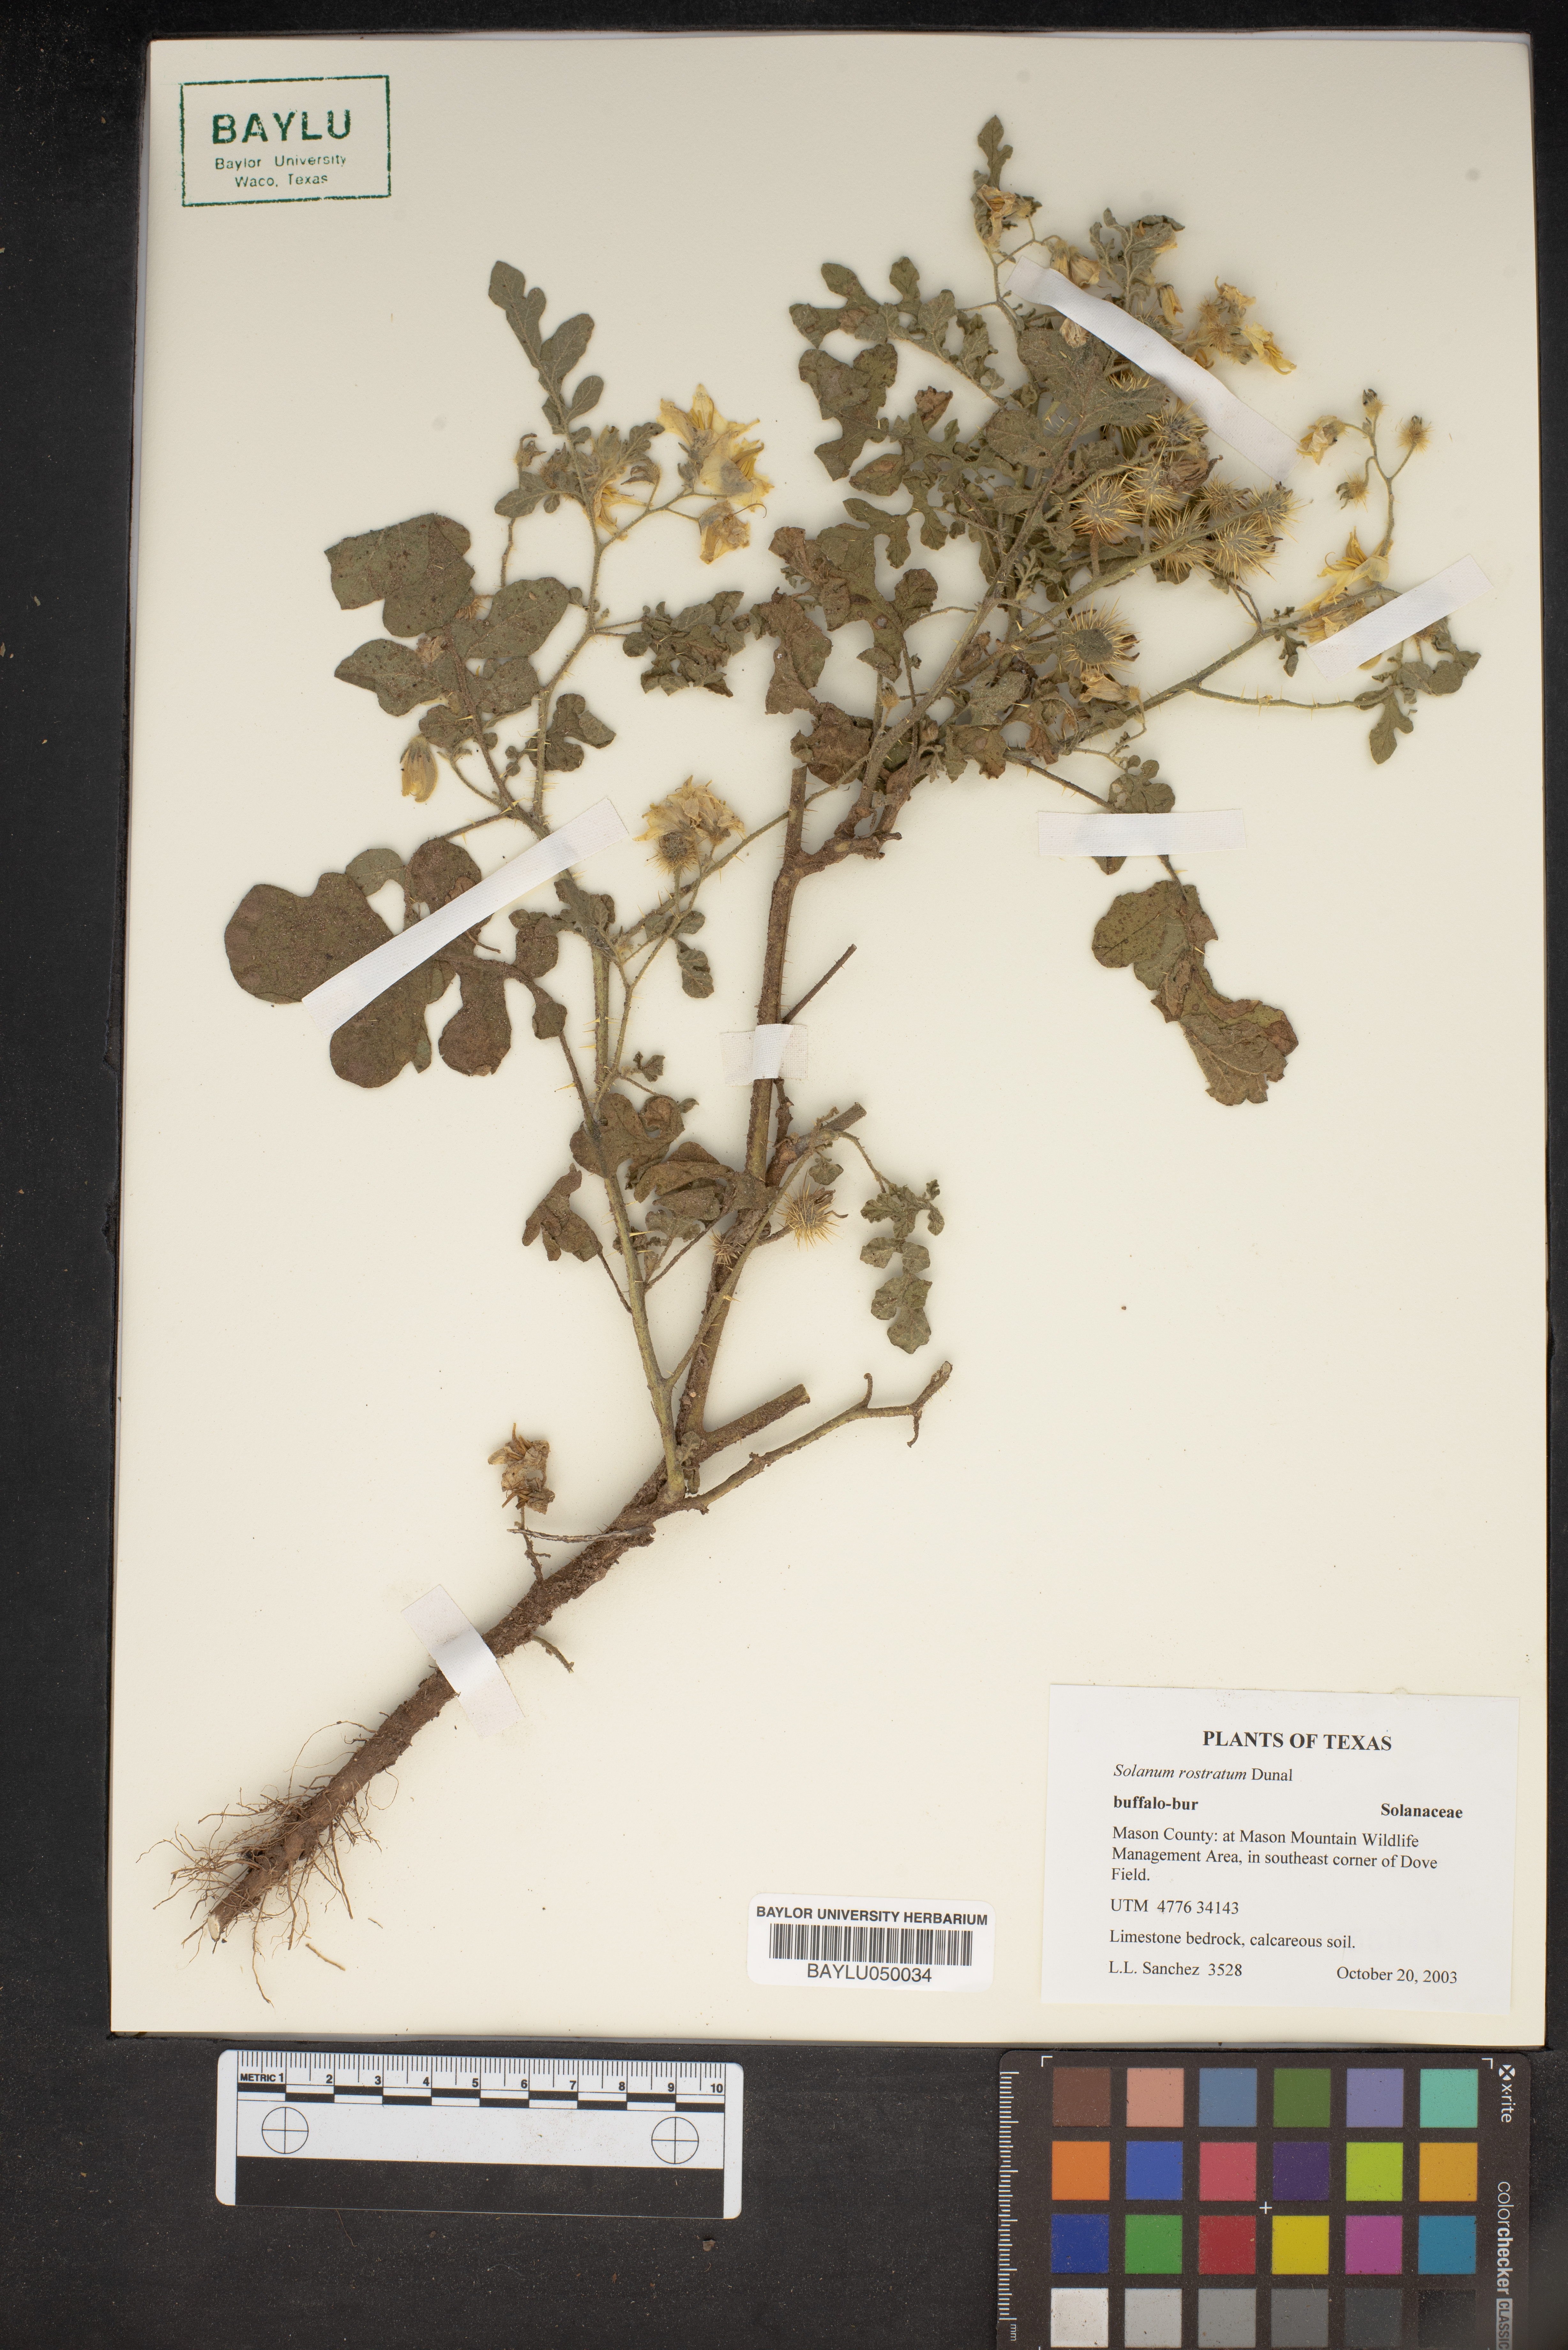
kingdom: Plantae
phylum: Tracheophyta
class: Magnoliopsida
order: Solanales
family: Solanaceae
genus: Solanum
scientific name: Solanum angustifolium
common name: Buffalobur nightshade
